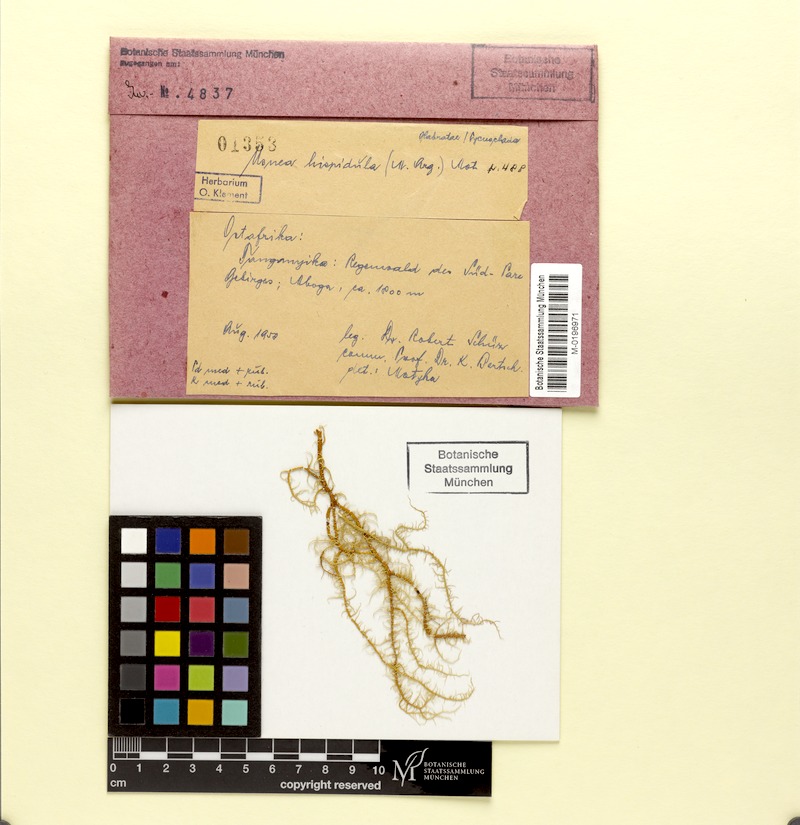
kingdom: Fungi
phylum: Ascomycota
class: Lecanoromycetes
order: Lecanorales
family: Parmeliaceae
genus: Usnea
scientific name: Usnea hispida
